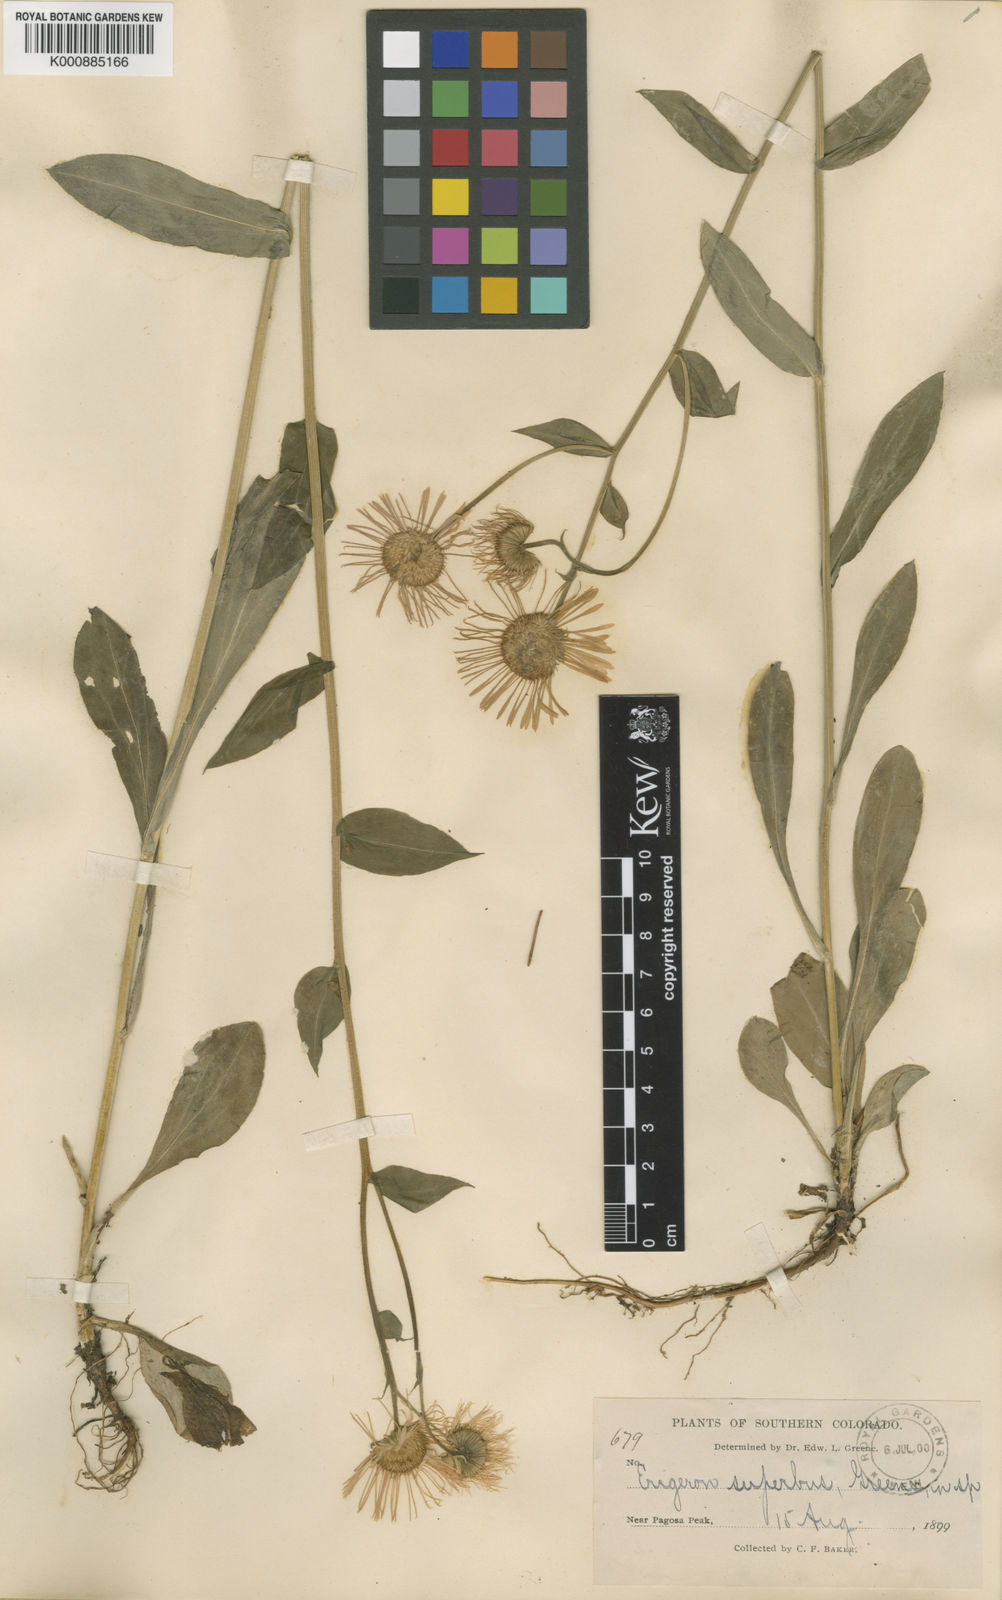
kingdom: Plantae
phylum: Tracheophyta
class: Magnoliopsida
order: Asterales
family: Asteraceae
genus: Erigeron
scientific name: Erigeron
